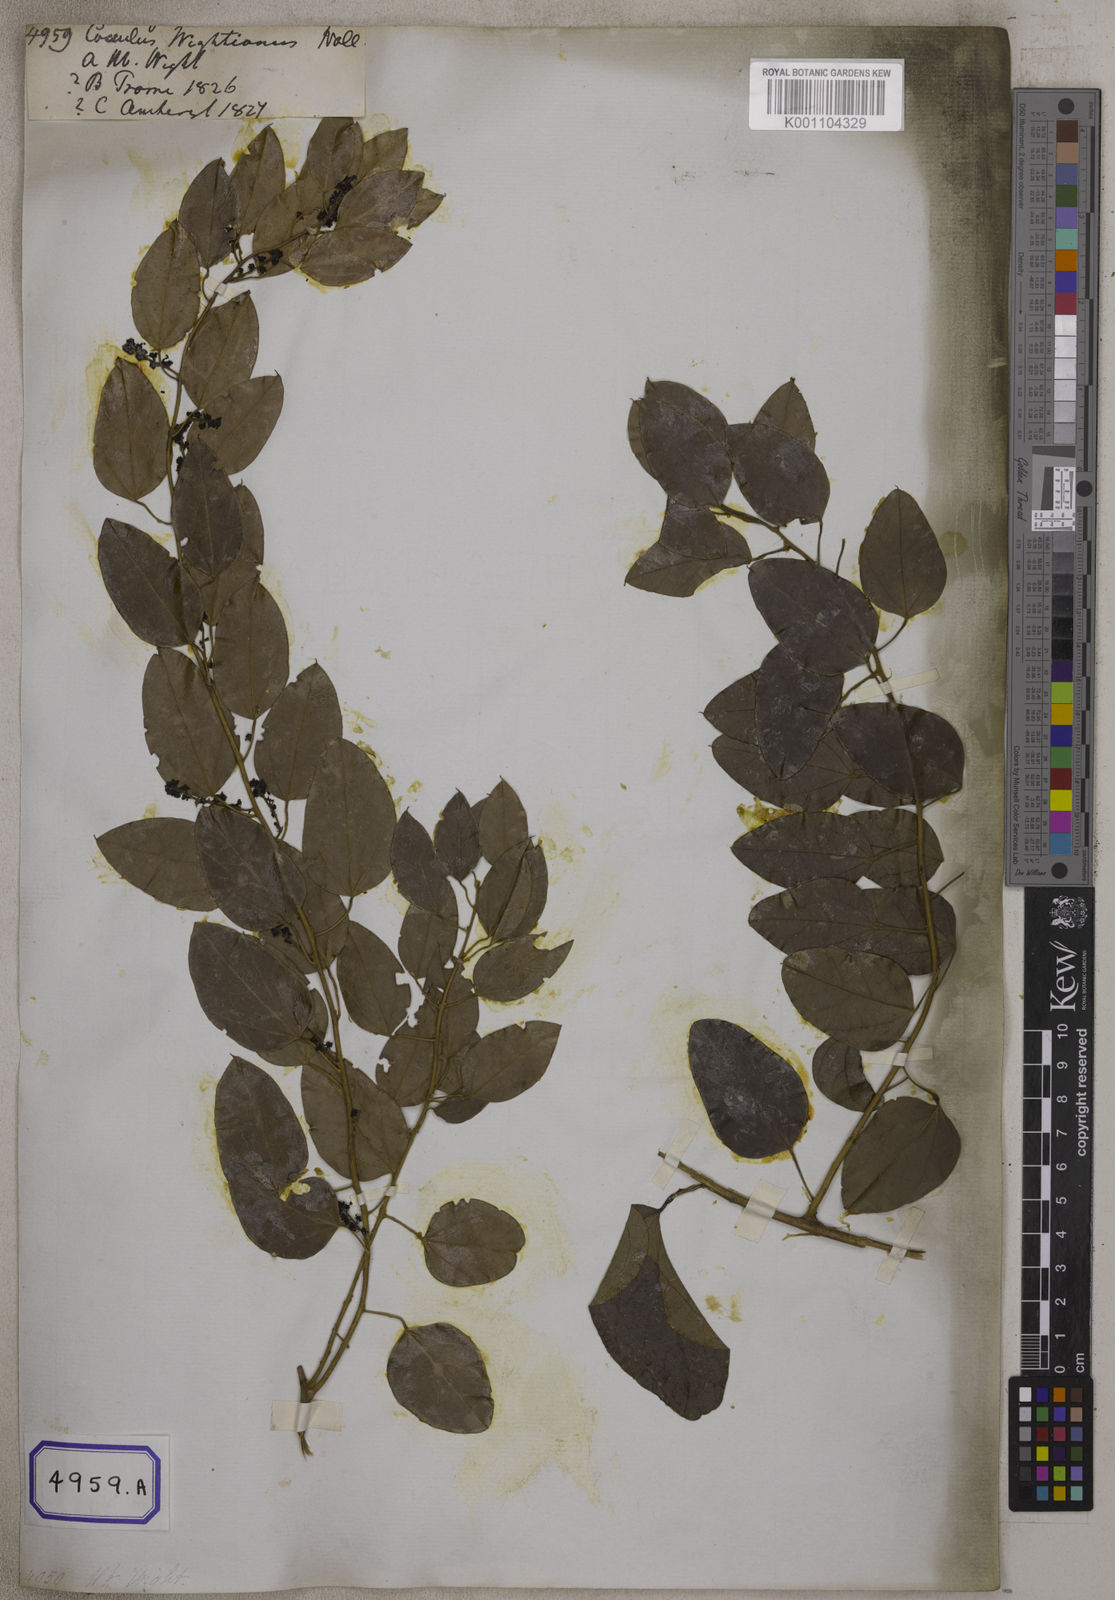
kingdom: Plantae
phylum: Tracheophyta
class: Magnoliopsida
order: Ranunculales
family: Menispermaceae
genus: Pachygone
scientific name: Pachygone ovata
